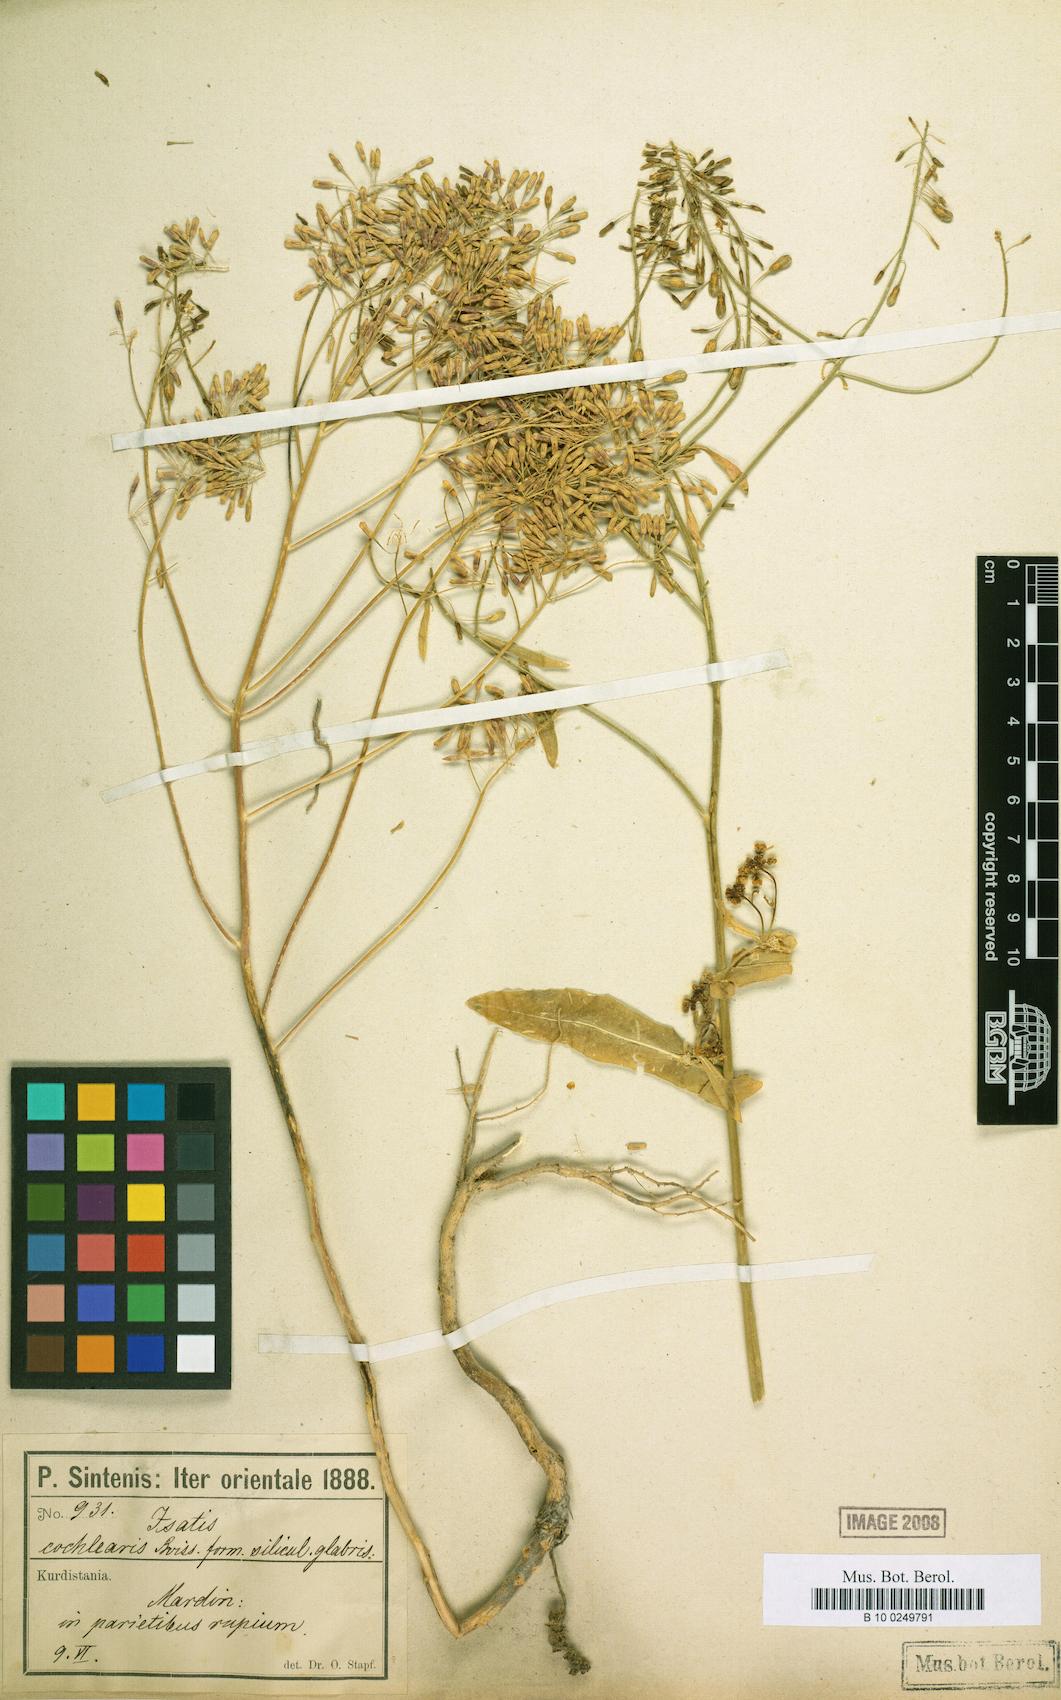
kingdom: Plantae
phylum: Tracheophyta
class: Magnoliopsida
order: Brassicales
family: Brassicaceae
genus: Isatis
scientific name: Isatis cochlearis
